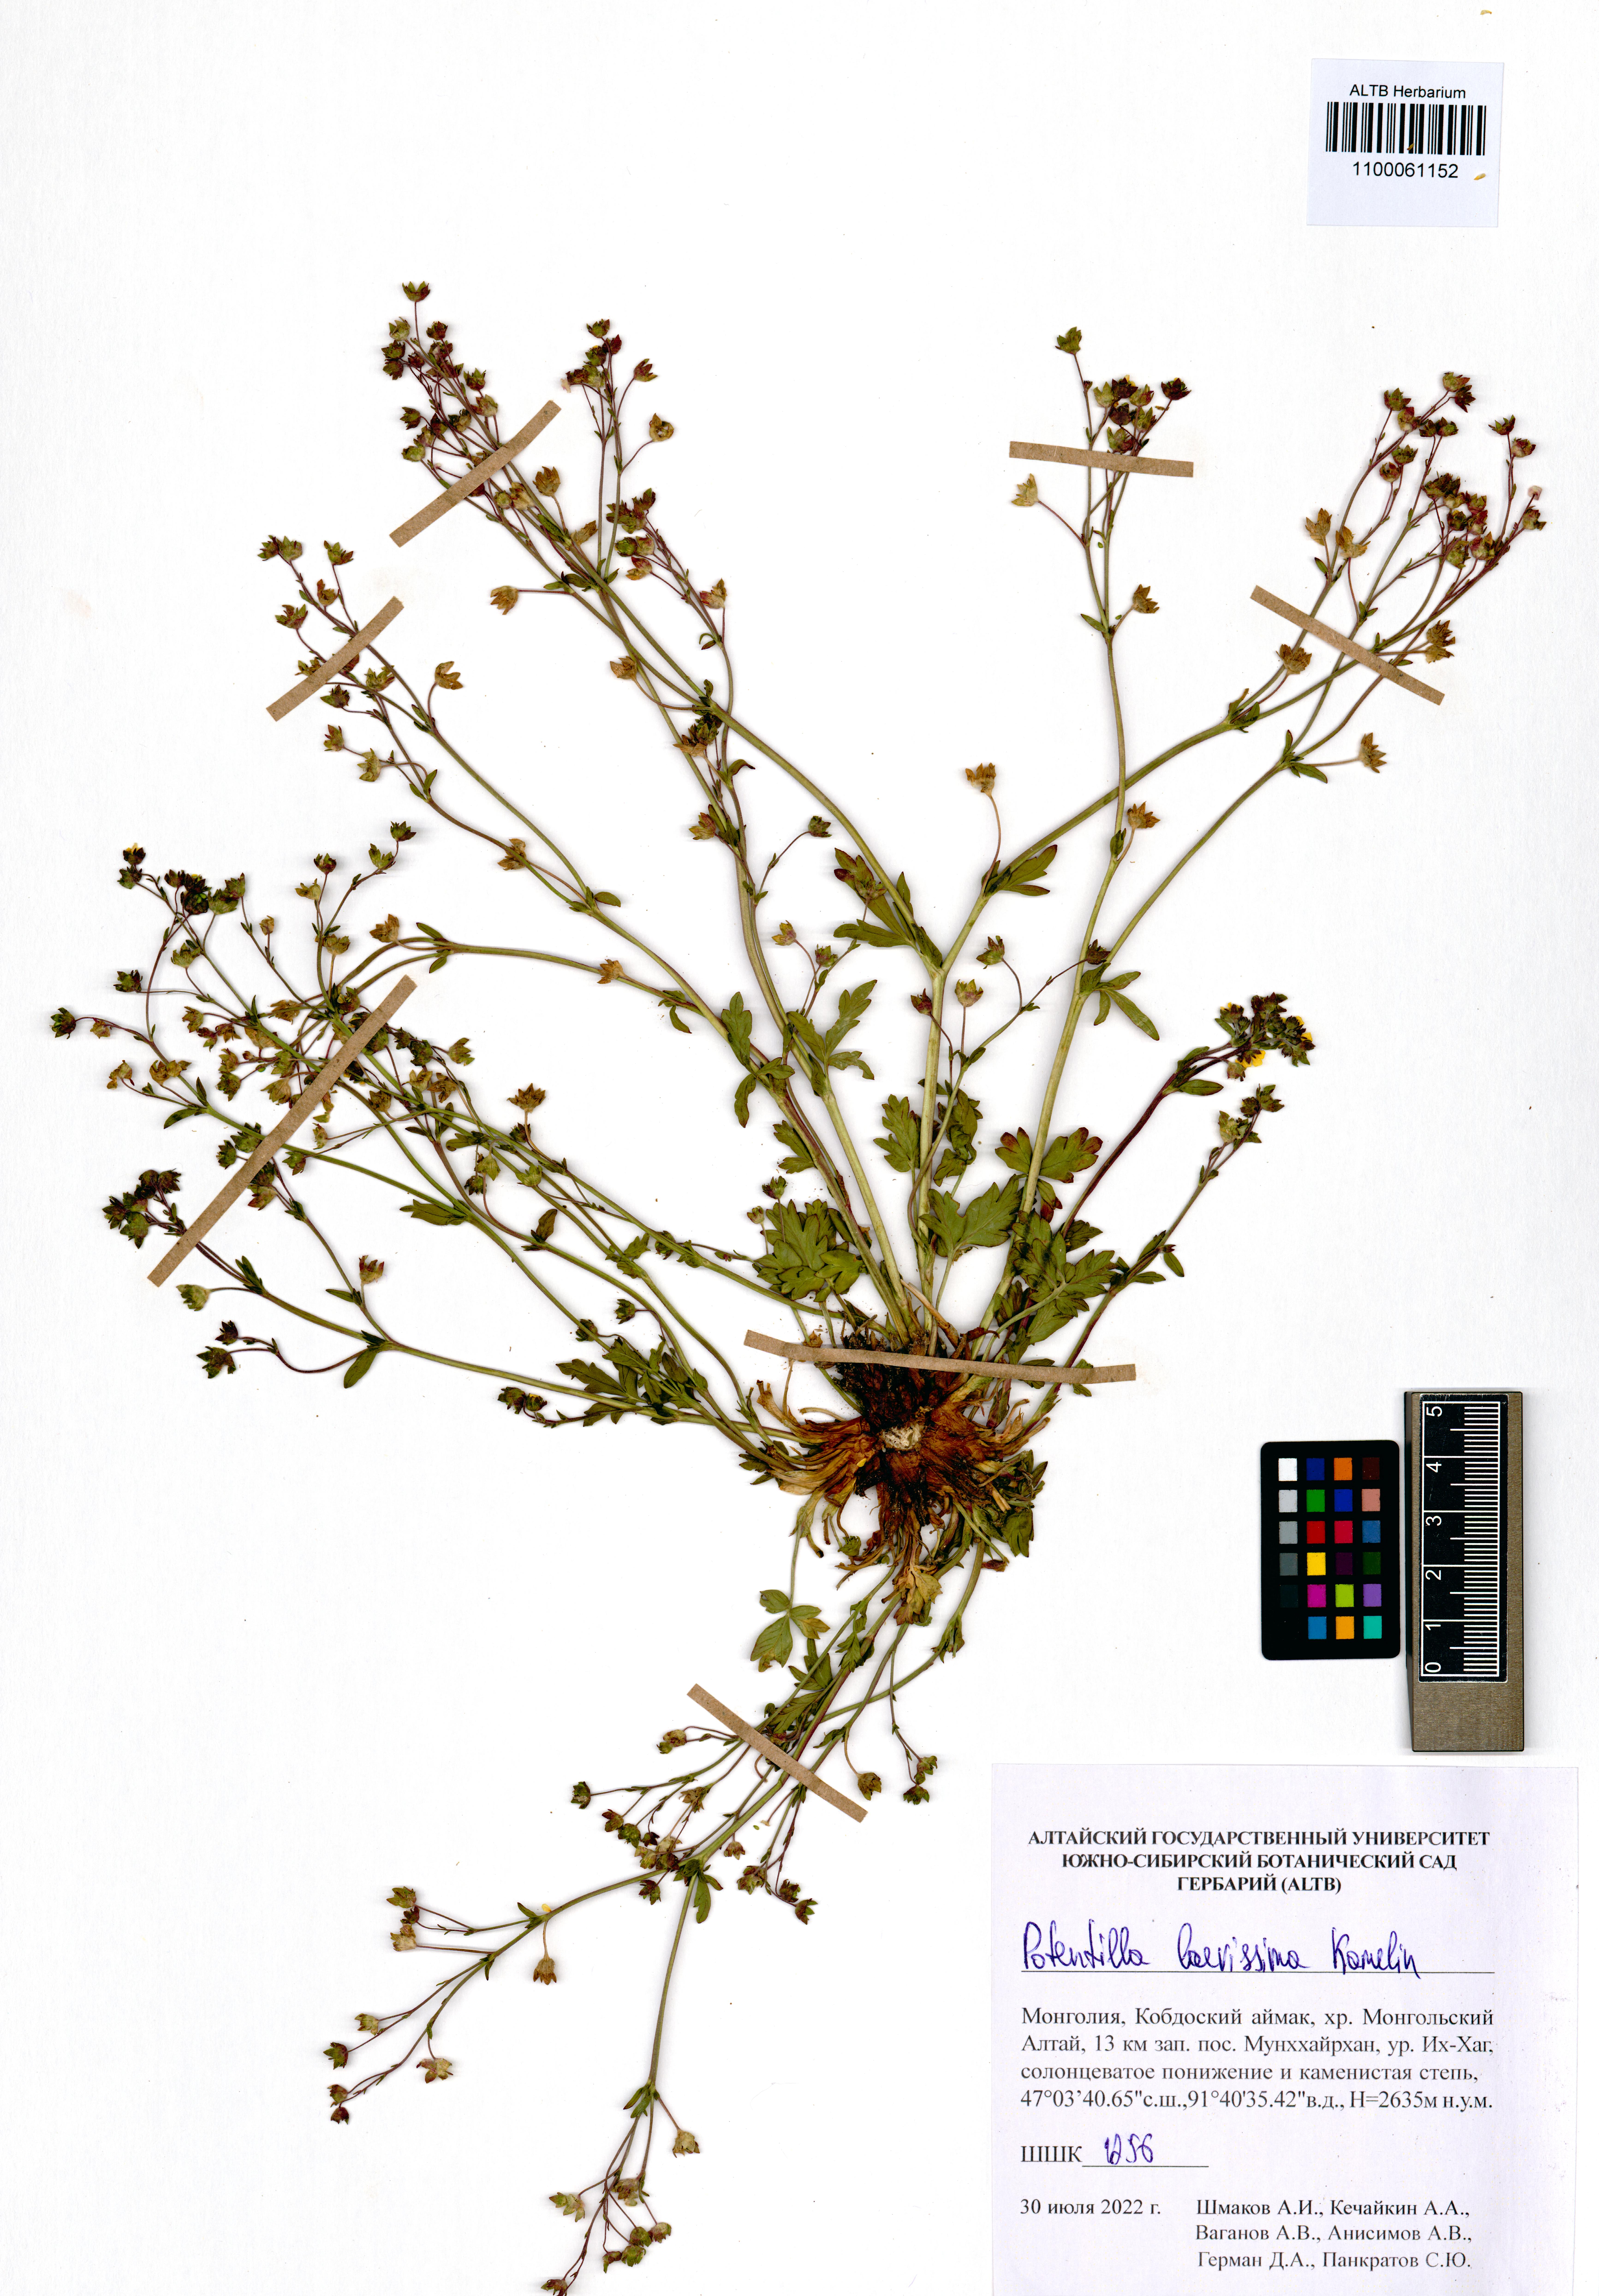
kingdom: Plantae
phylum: Tracheophyta
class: Magnoliopsida
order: Rosales
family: Rosaceae
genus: Potentilla
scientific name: Potentilla laevissima
